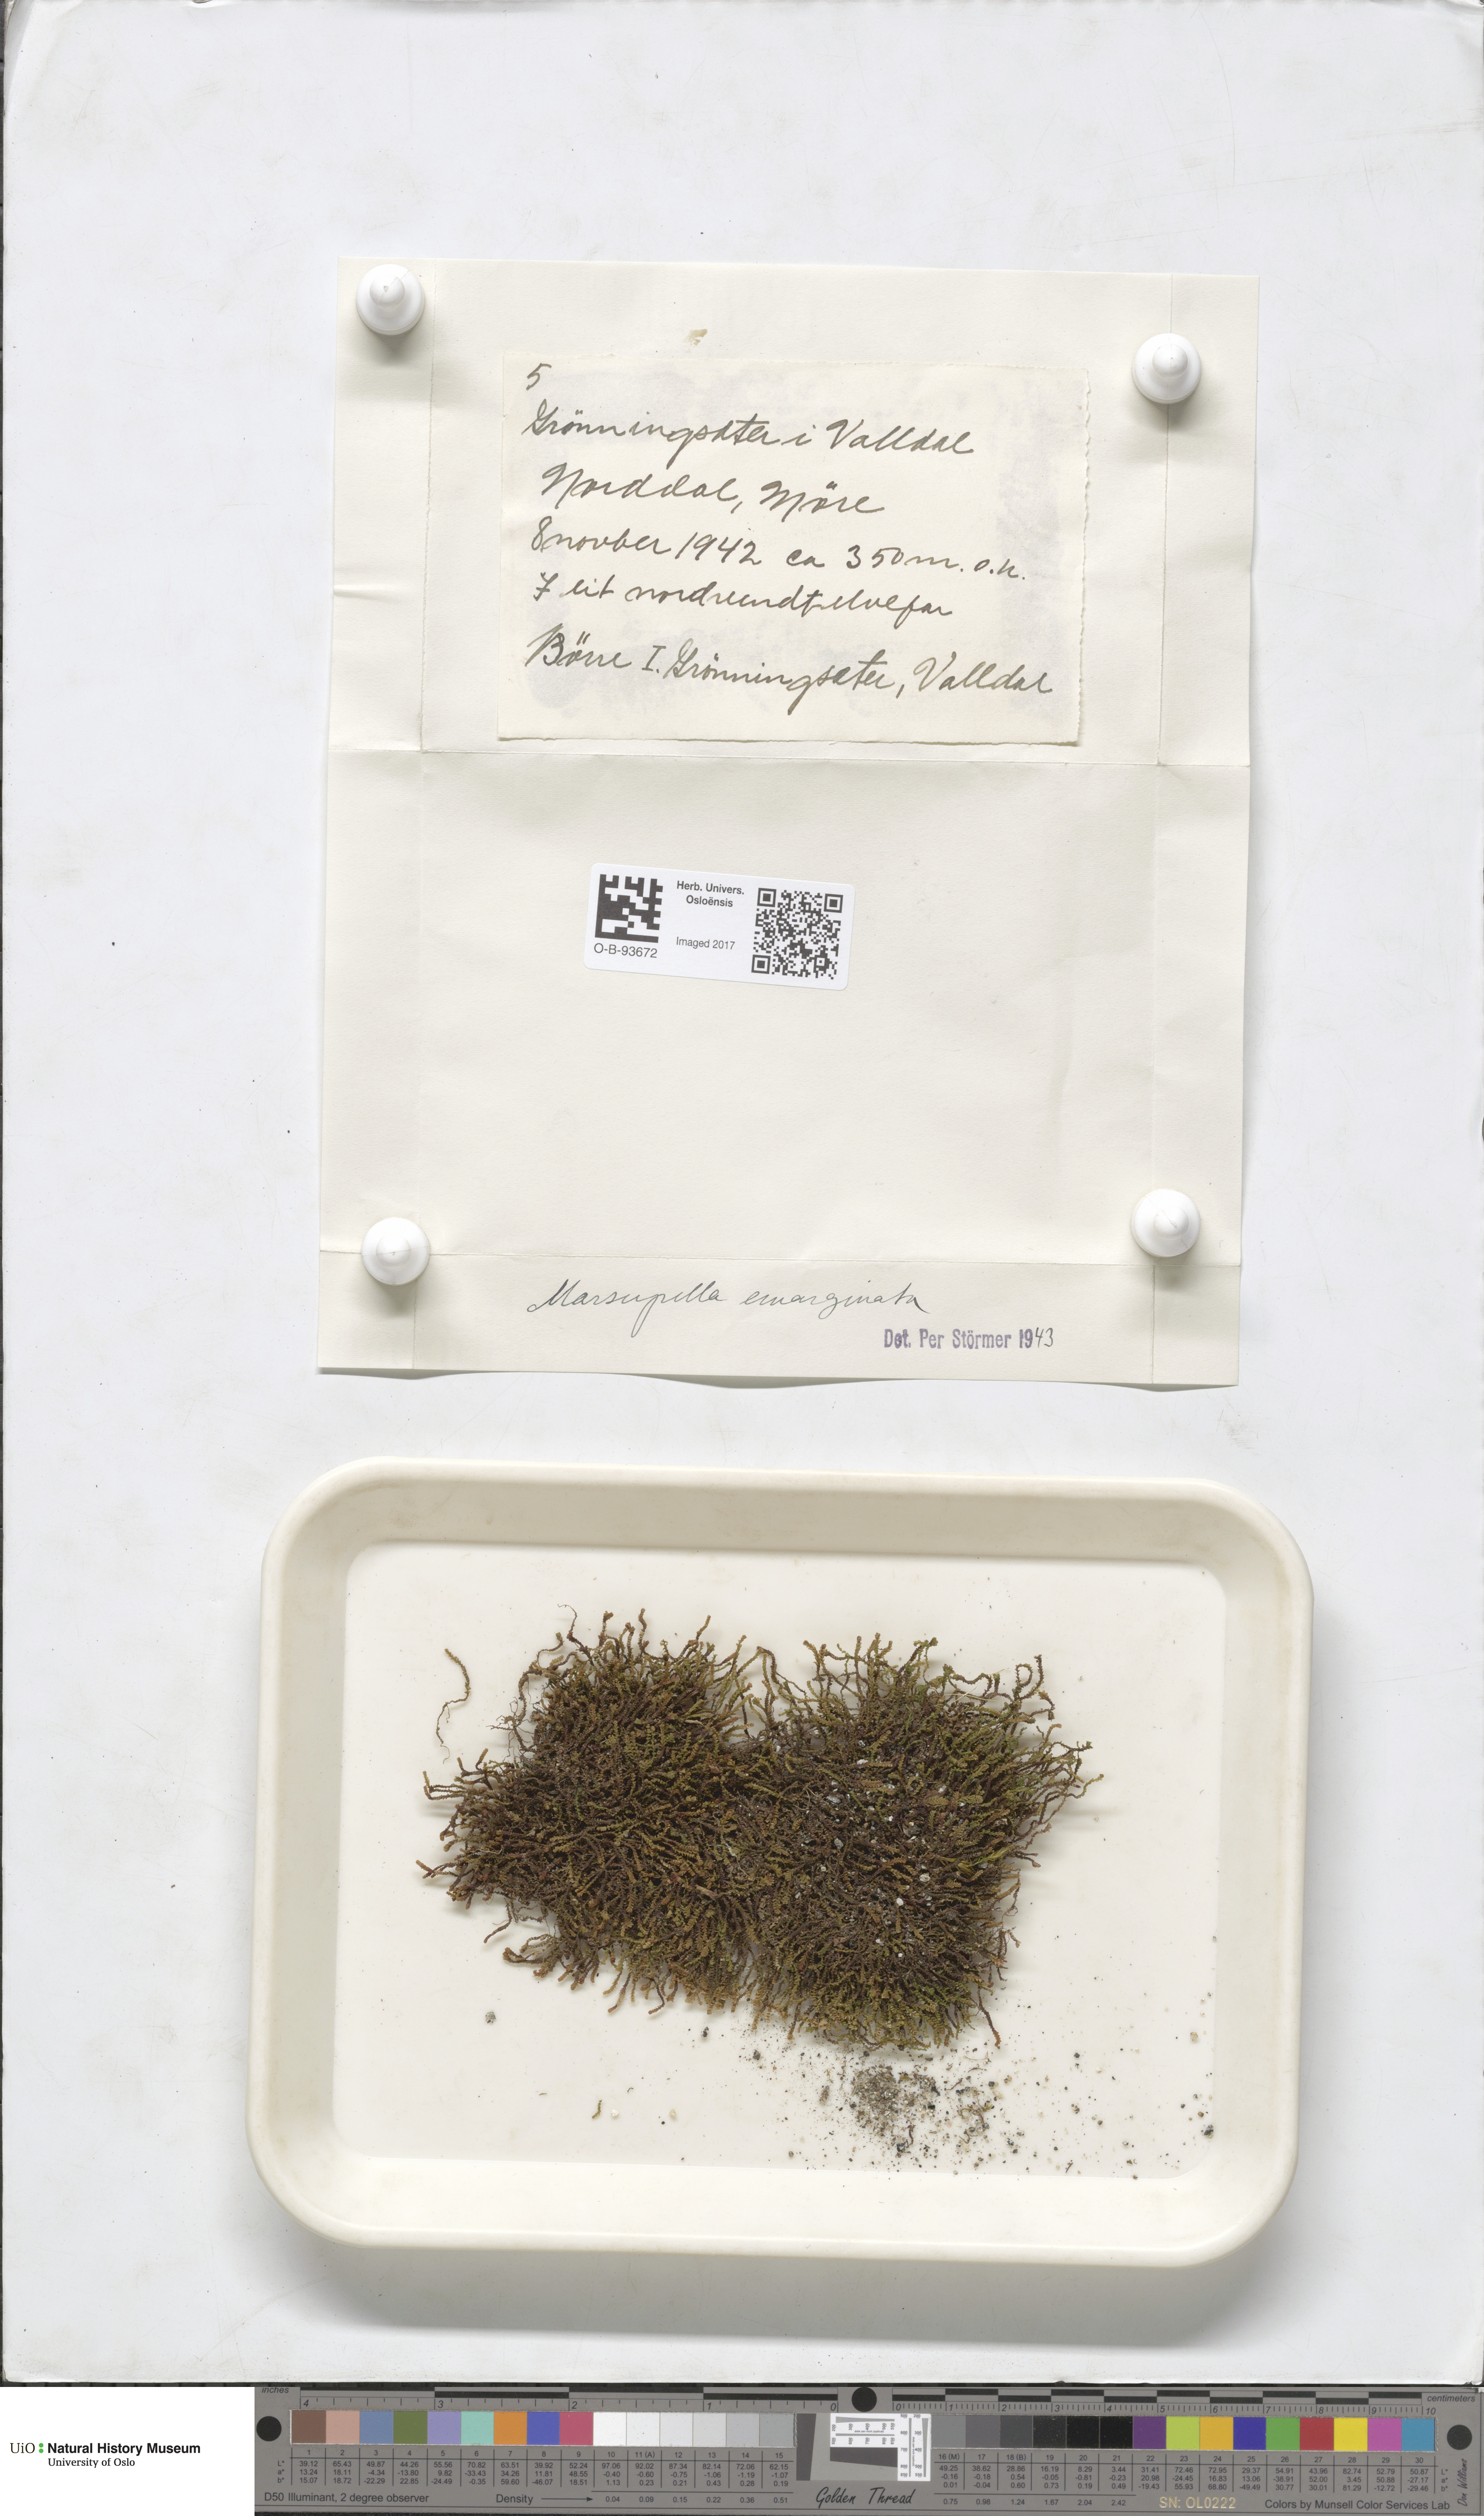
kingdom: Plantae
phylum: Marchantiophyta
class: Jungermanniopsida
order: Jungermanniales
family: Gymnomitriaceae
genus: Marsupella
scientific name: Marsupella emarginata
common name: Notched rustwort
